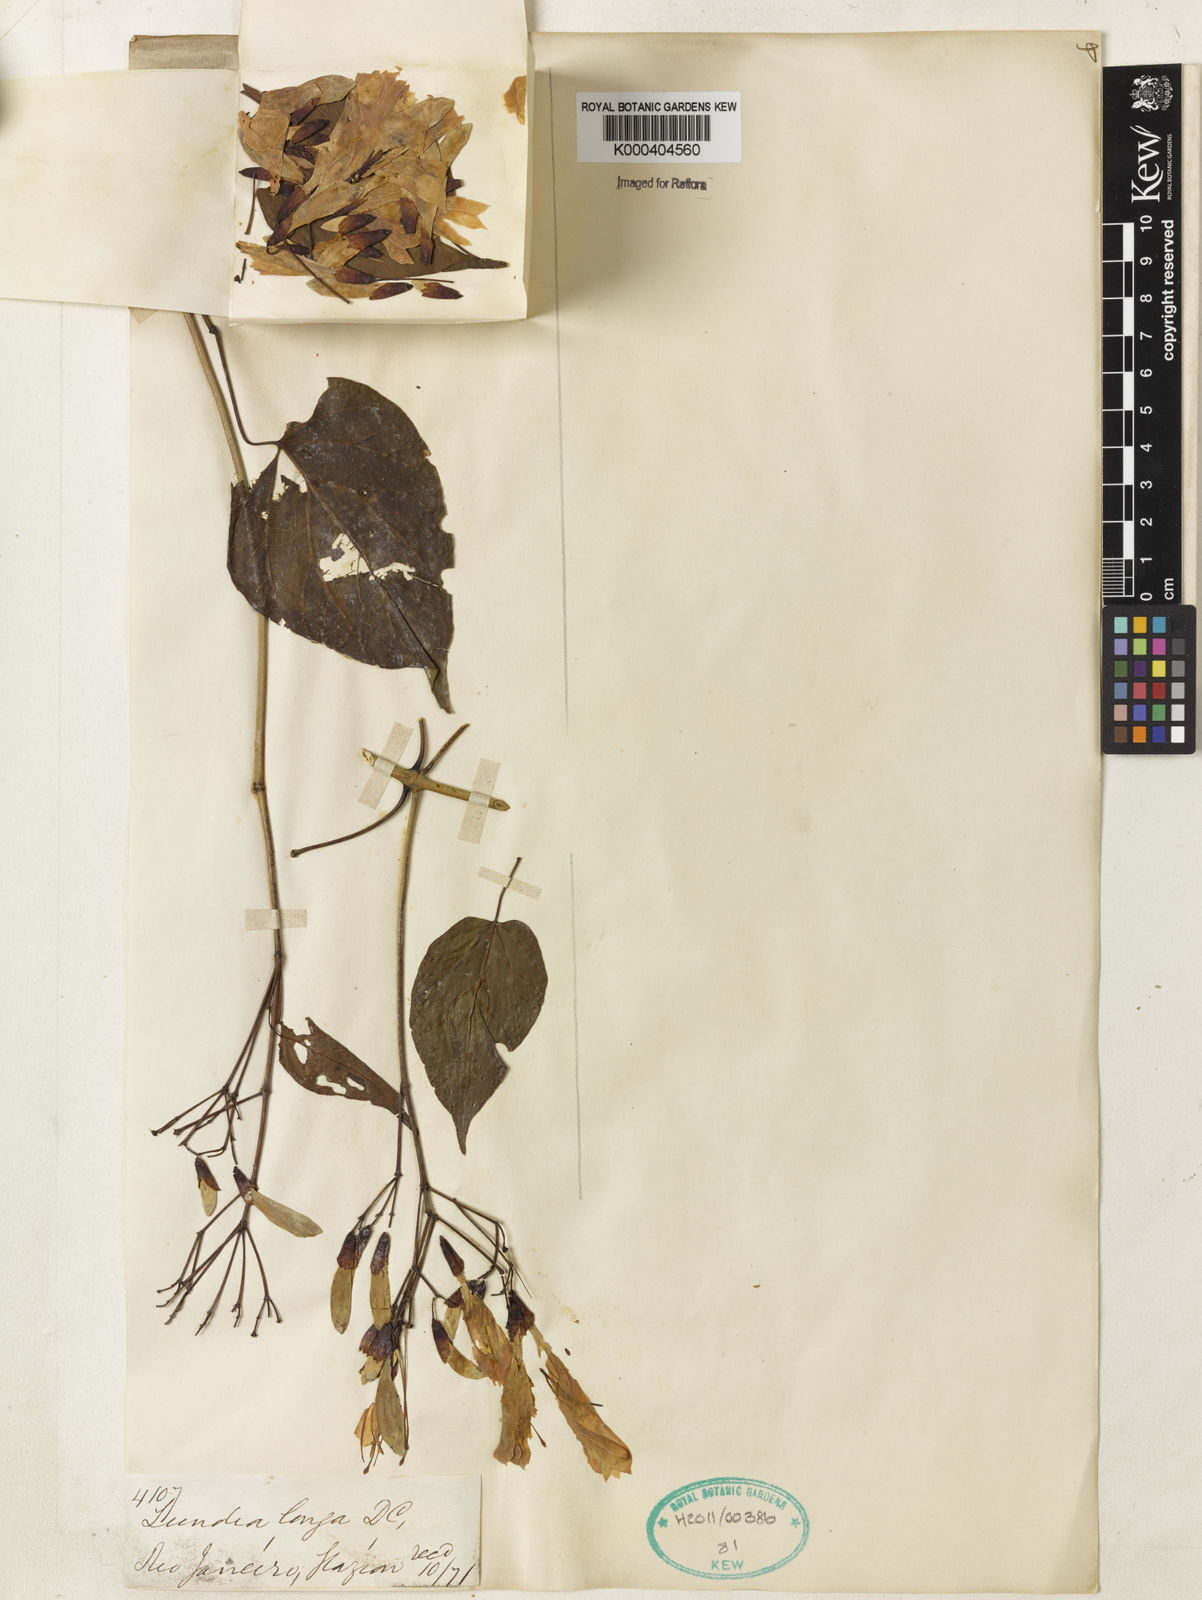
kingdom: Plantae
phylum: Tracheophyta
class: Magnoliopsida
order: Lamiales
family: Bignoniaceae
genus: Lundia
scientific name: Lundia longa
